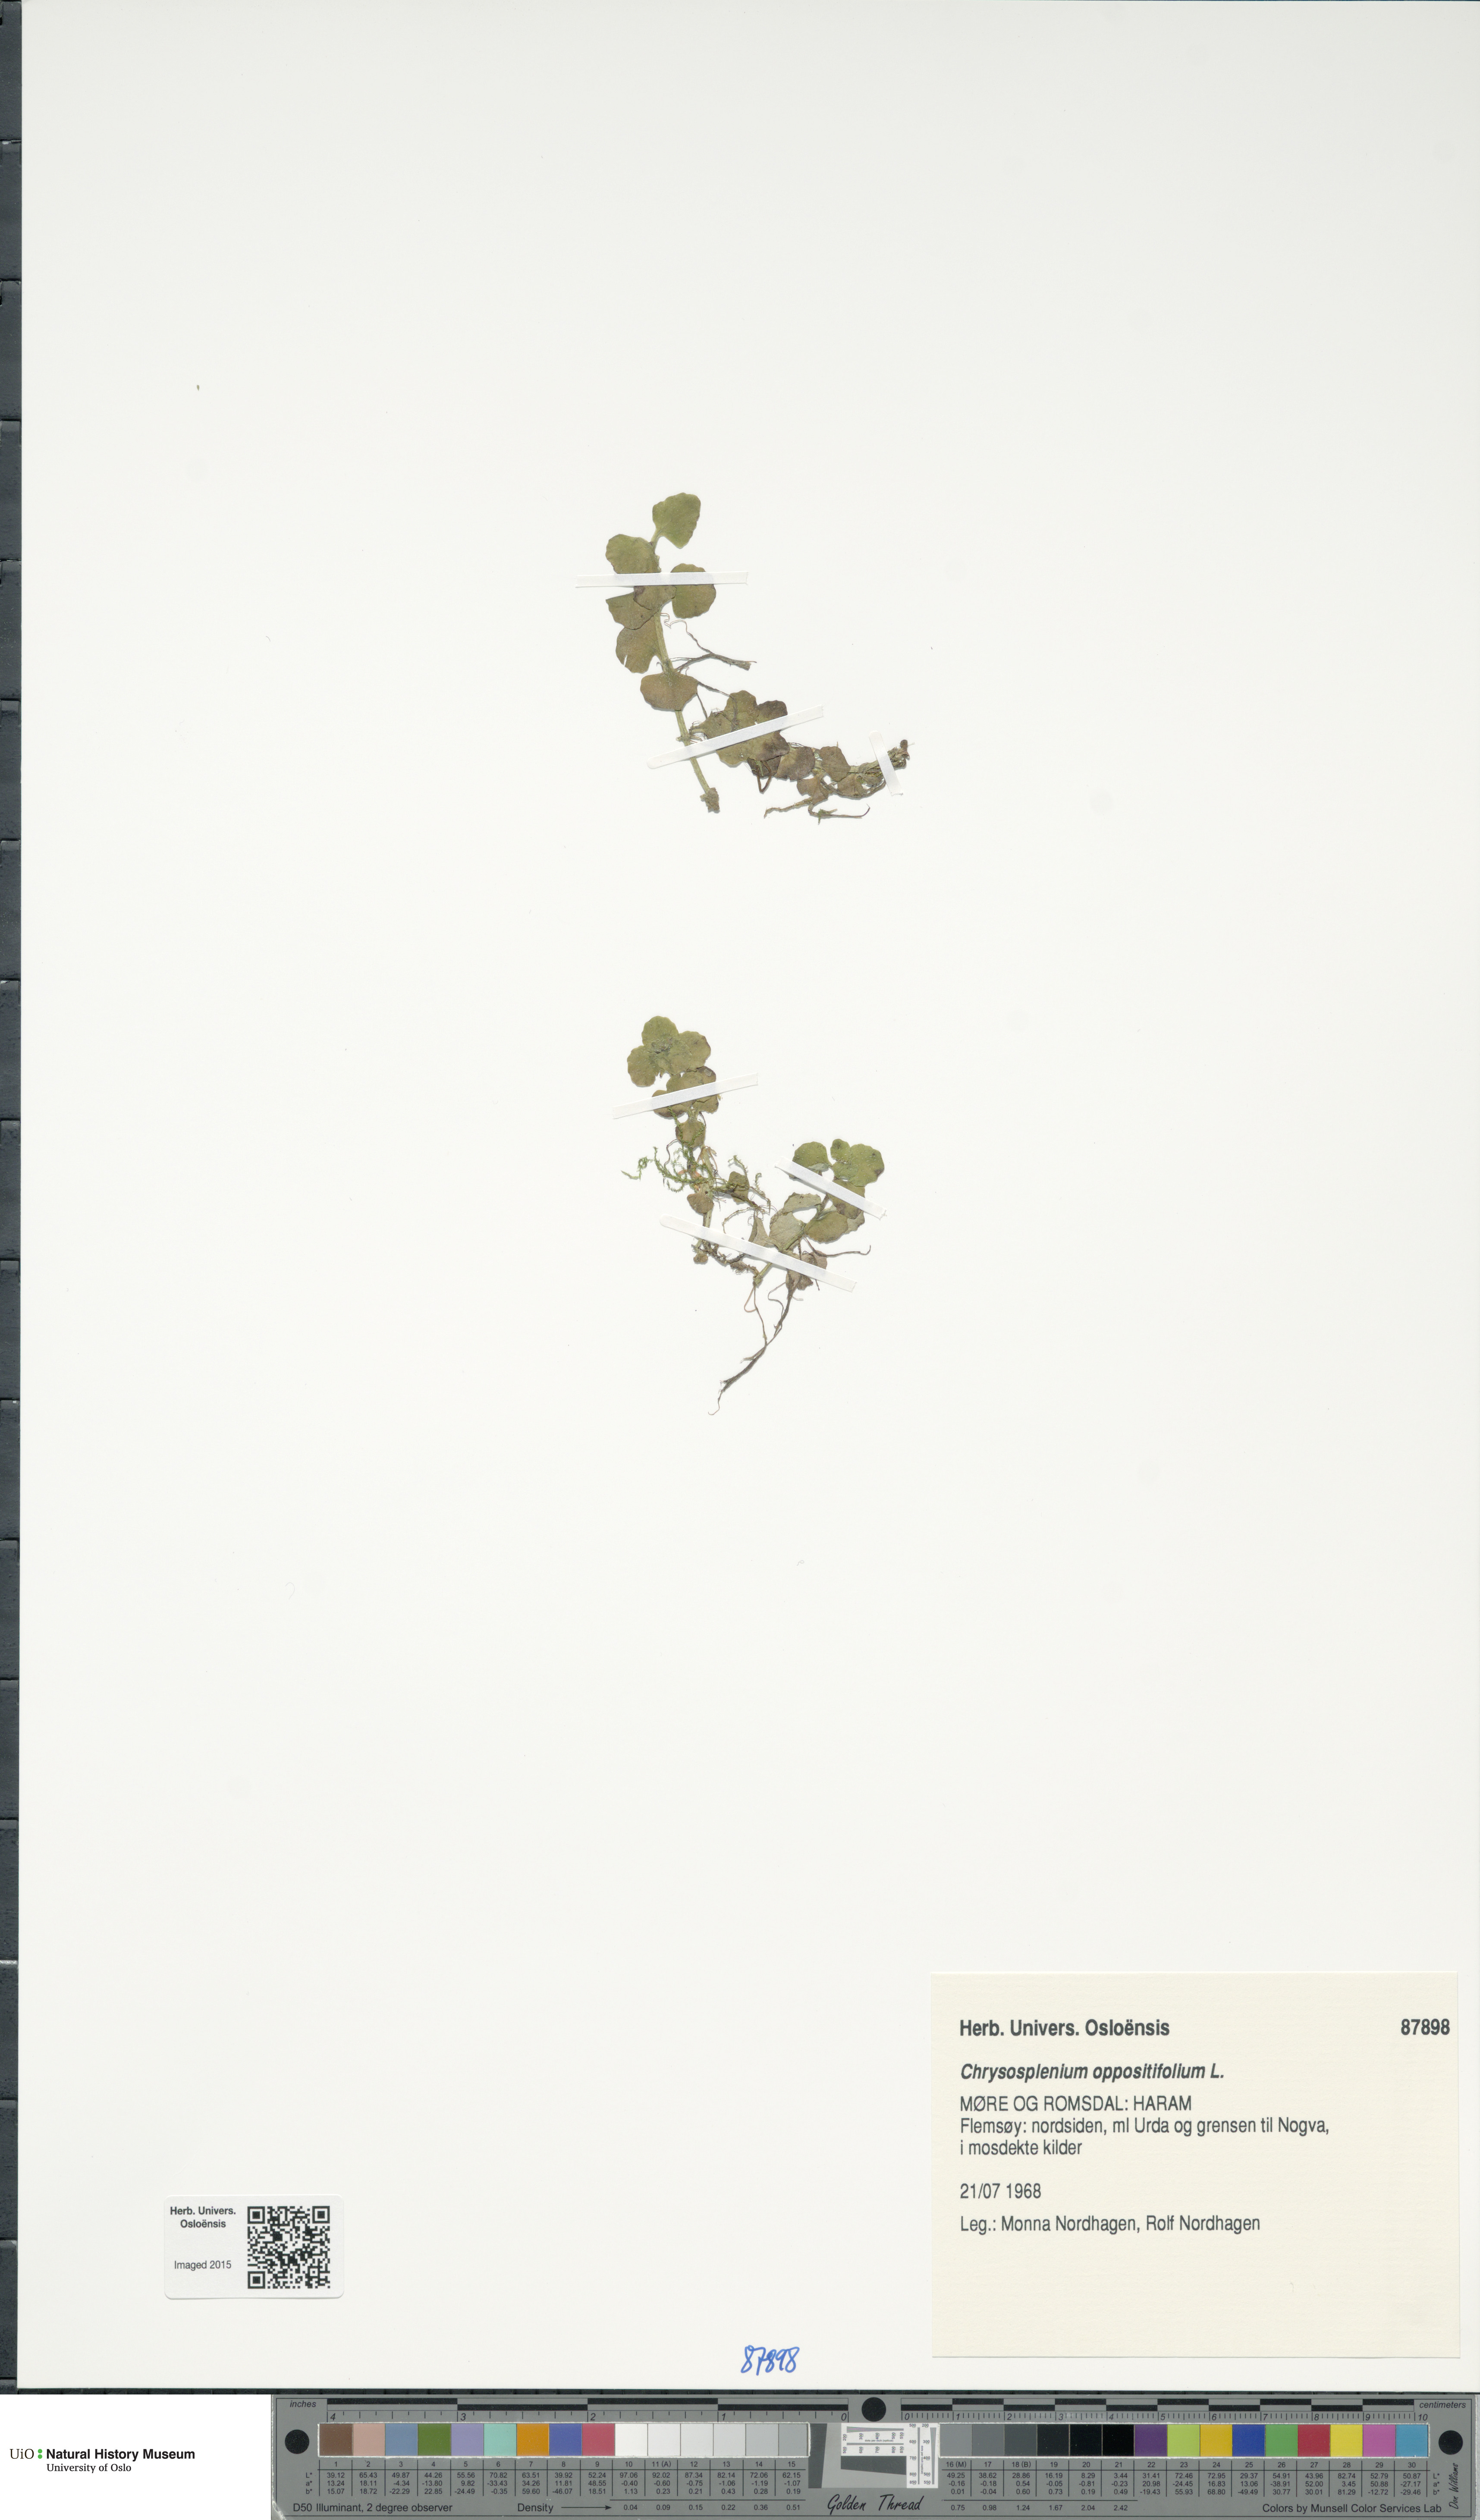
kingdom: Plantae
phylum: Tracheophyta
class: Magnoliopsida
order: Saxifragales
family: Saxifragaceae
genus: Chrysosplenium
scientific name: Chrysosplenium oppositifolium
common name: Opposite-leaved golden-saxifrage
